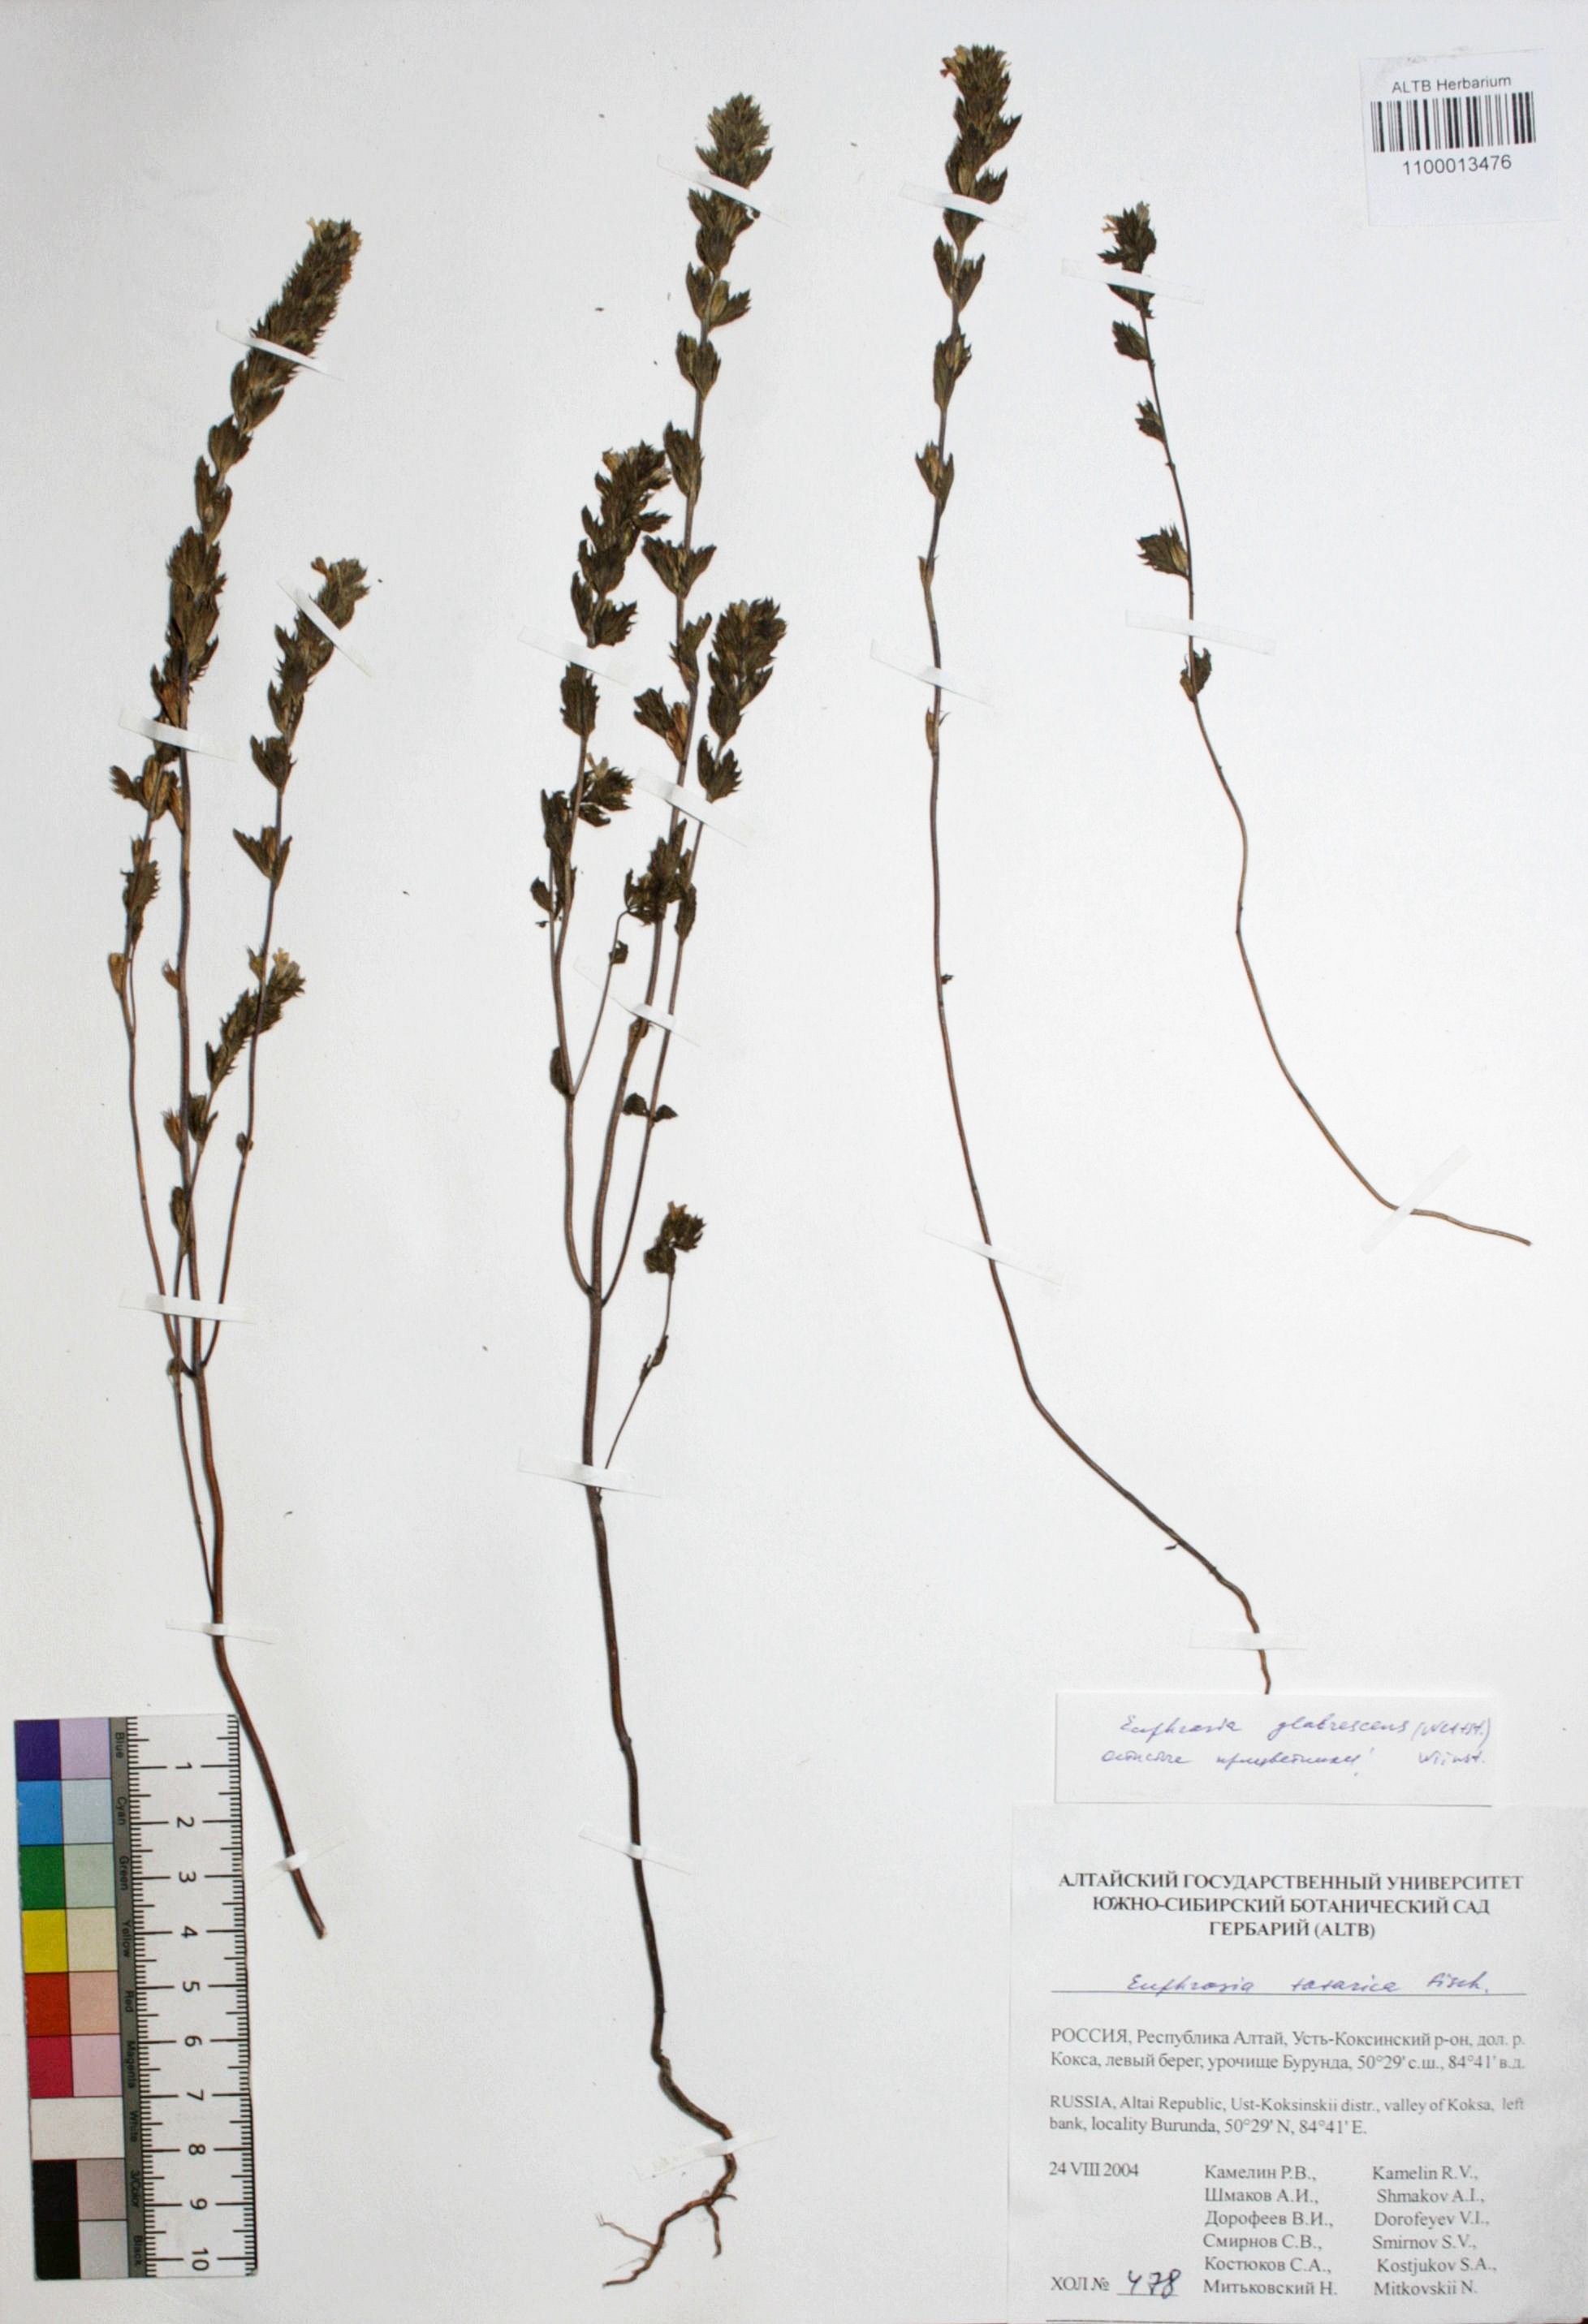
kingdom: Plantae
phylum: Tracheophyta
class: Magnoliopsida
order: Lamiales
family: Orobanchaceae
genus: Euphrasia
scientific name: Euphrasia pectinata
